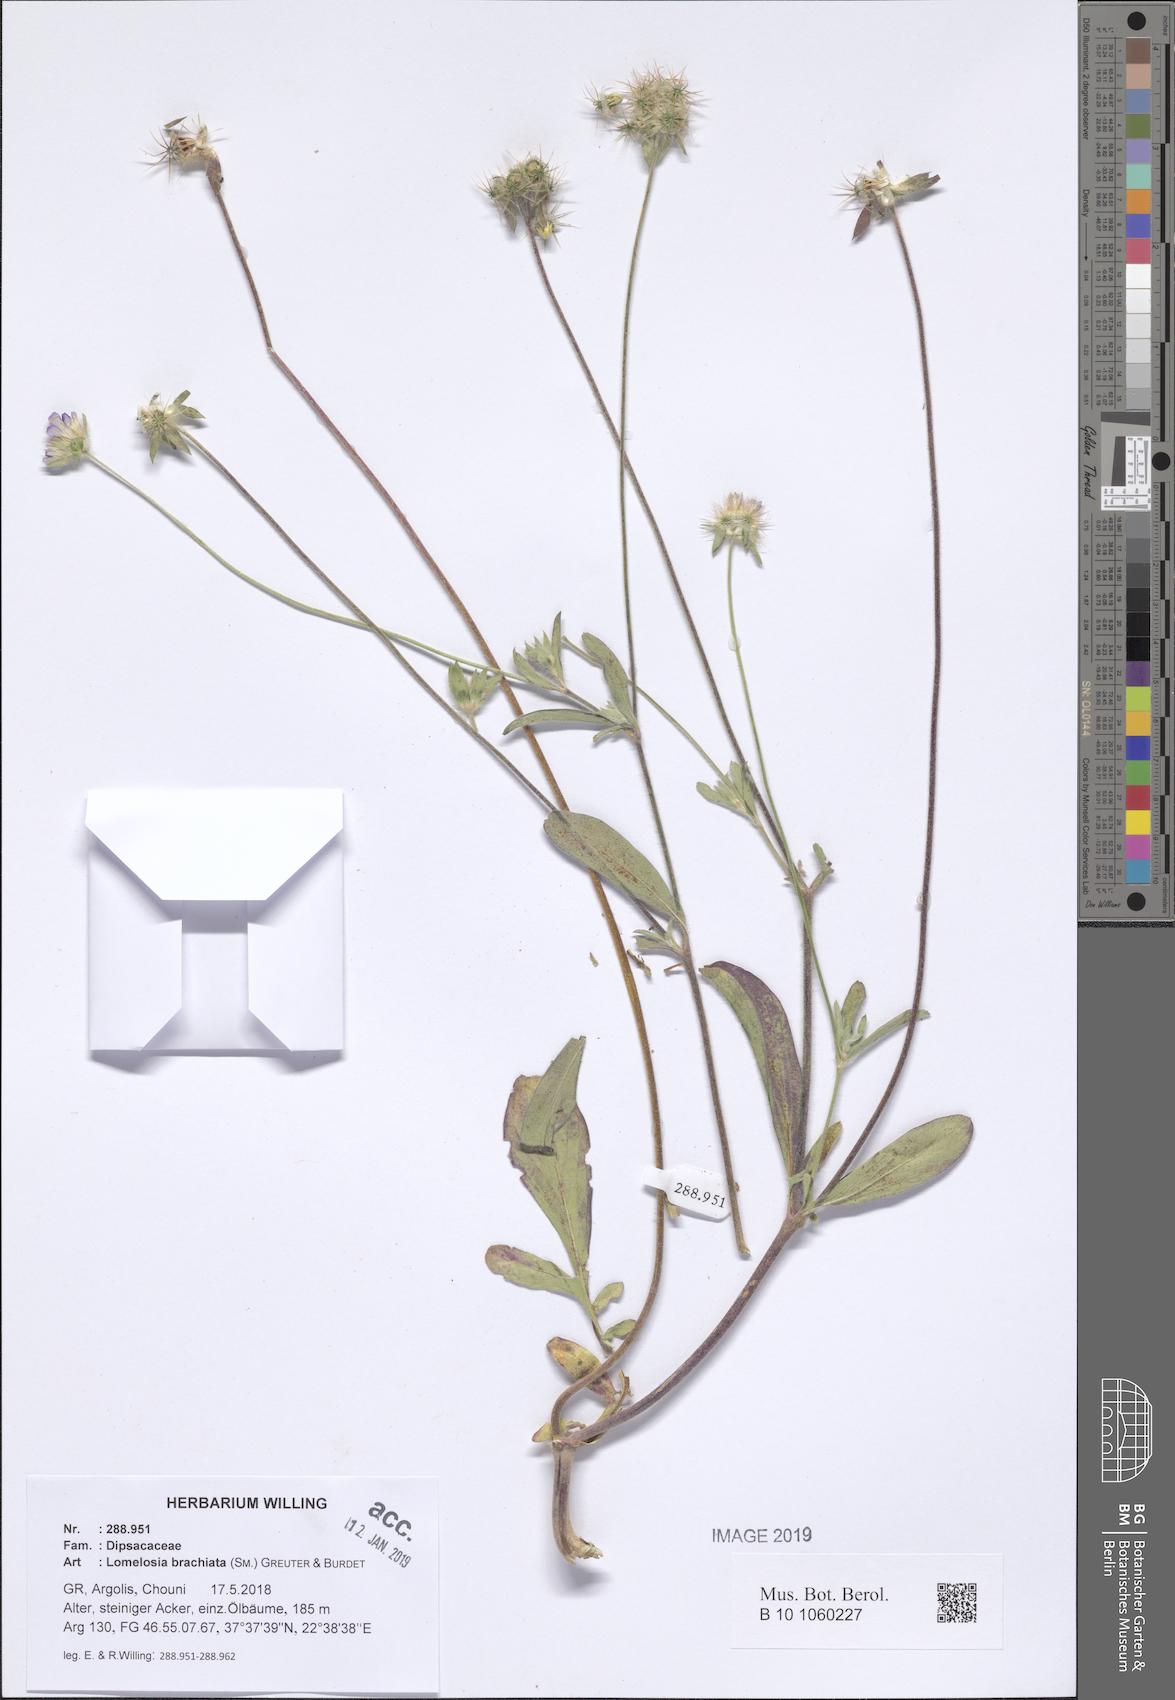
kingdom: Plantae
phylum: Tracheophyta
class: Magnoliopsida
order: Dipsacales
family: Caprifoliaceae
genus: Lomelosia
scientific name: Lomelosia brachiata
